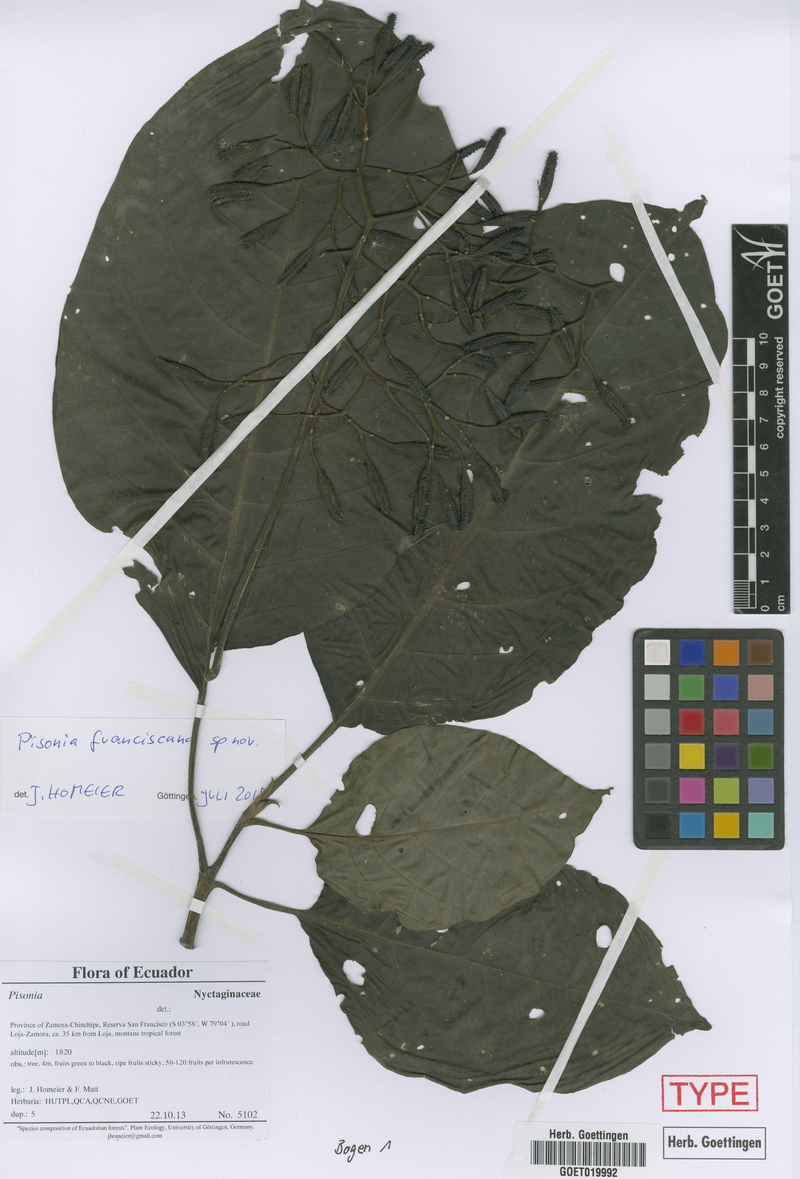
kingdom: Plantae
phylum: Tracheophyta
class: Magnoliopsida
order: Caryophyllales
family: Nyctaginaceae
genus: Pisonia
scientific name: Pisonia
